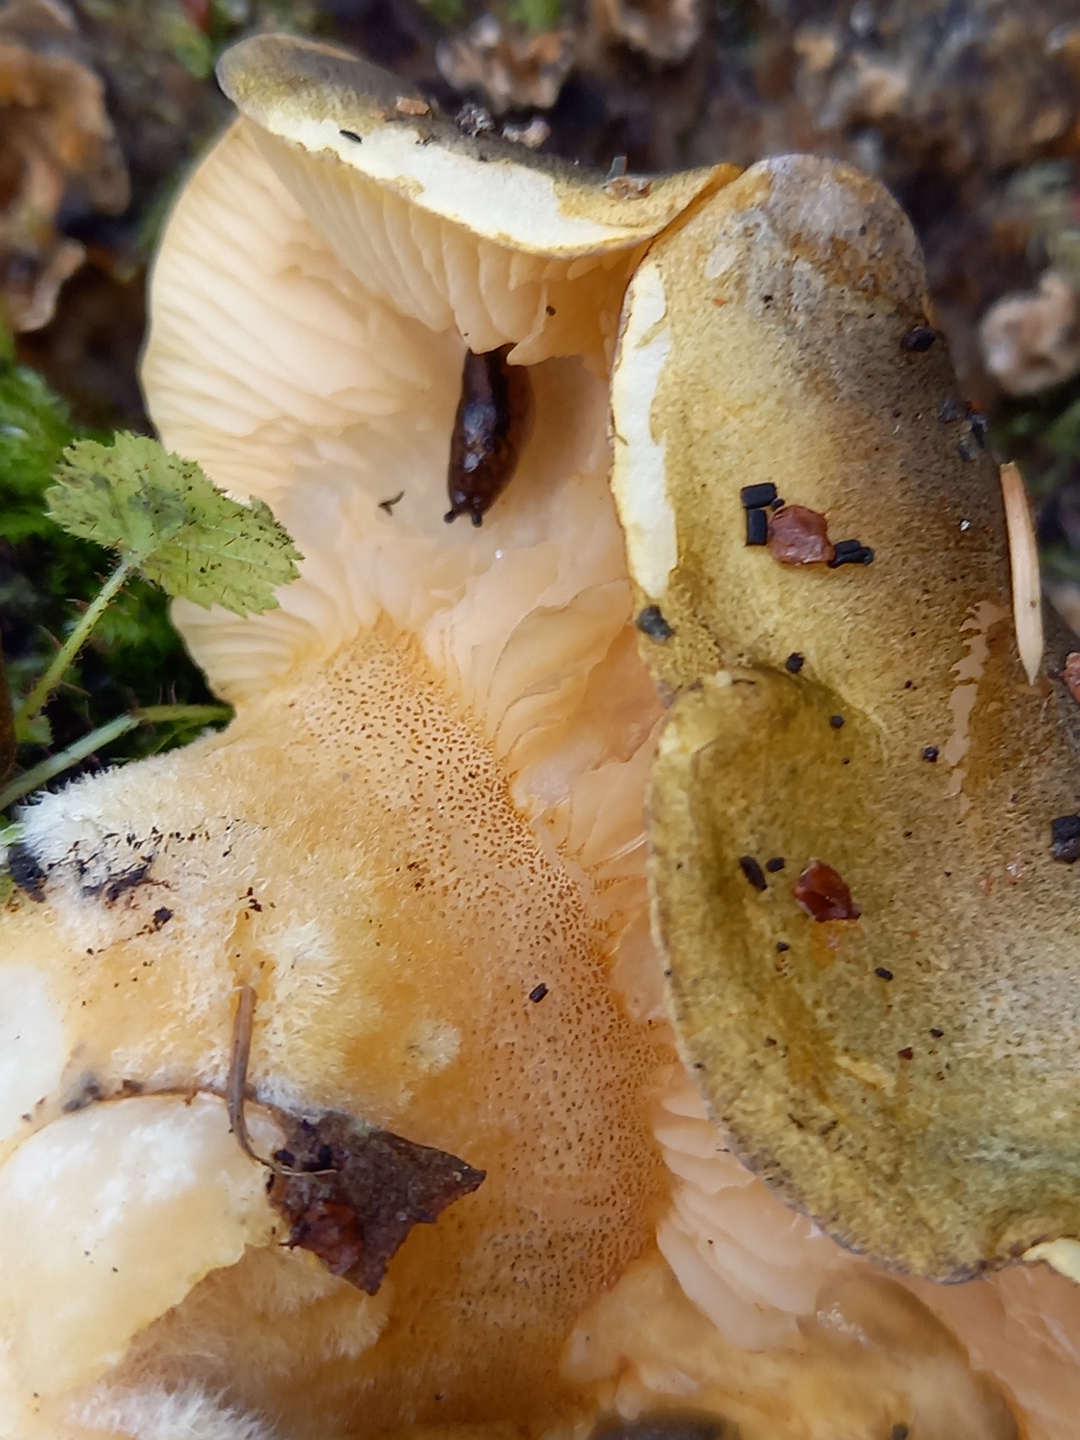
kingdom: Fungi
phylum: Basidiomycota
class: Agaricomycetes
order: Agaricales
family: Sarcomyxaceae
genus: Sarcomyxa
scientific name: Sarcomyxa serotina
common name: gummihat
